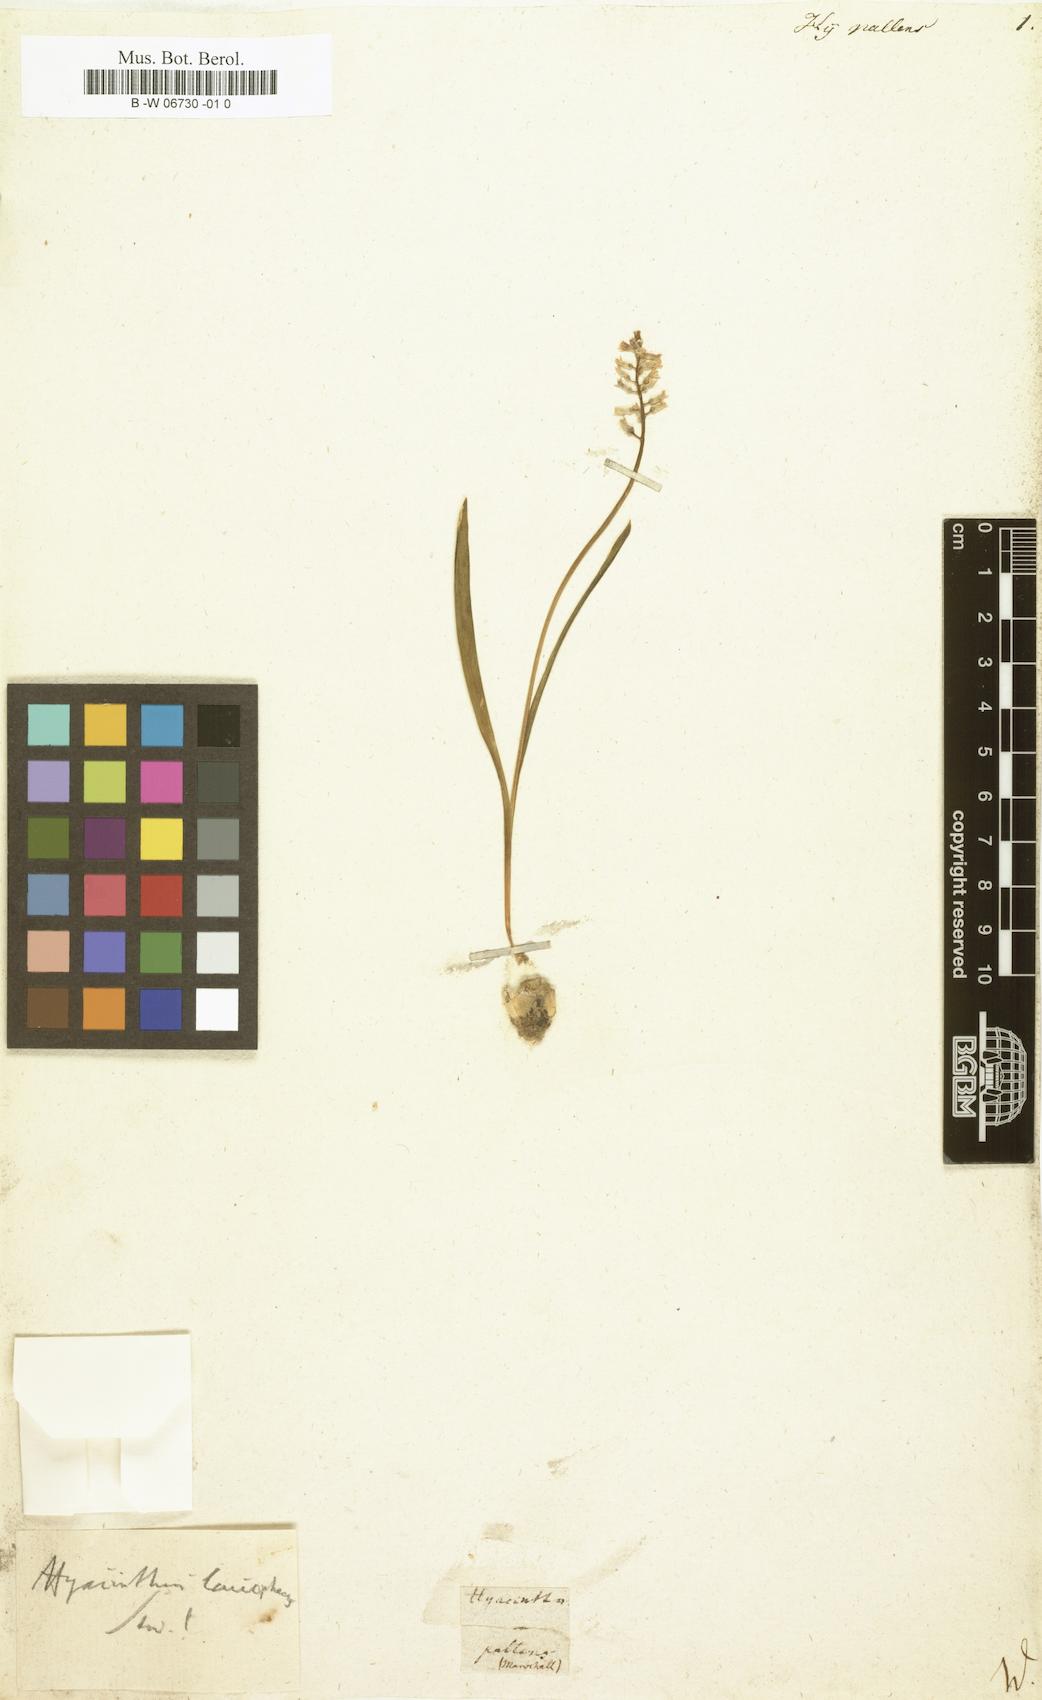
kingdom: Plantae
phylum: Tracheophyta
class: Liliopsida
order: Asparagales
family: Asparagaceae
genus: Hyacinthus
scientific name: Hyacinthus pallens
